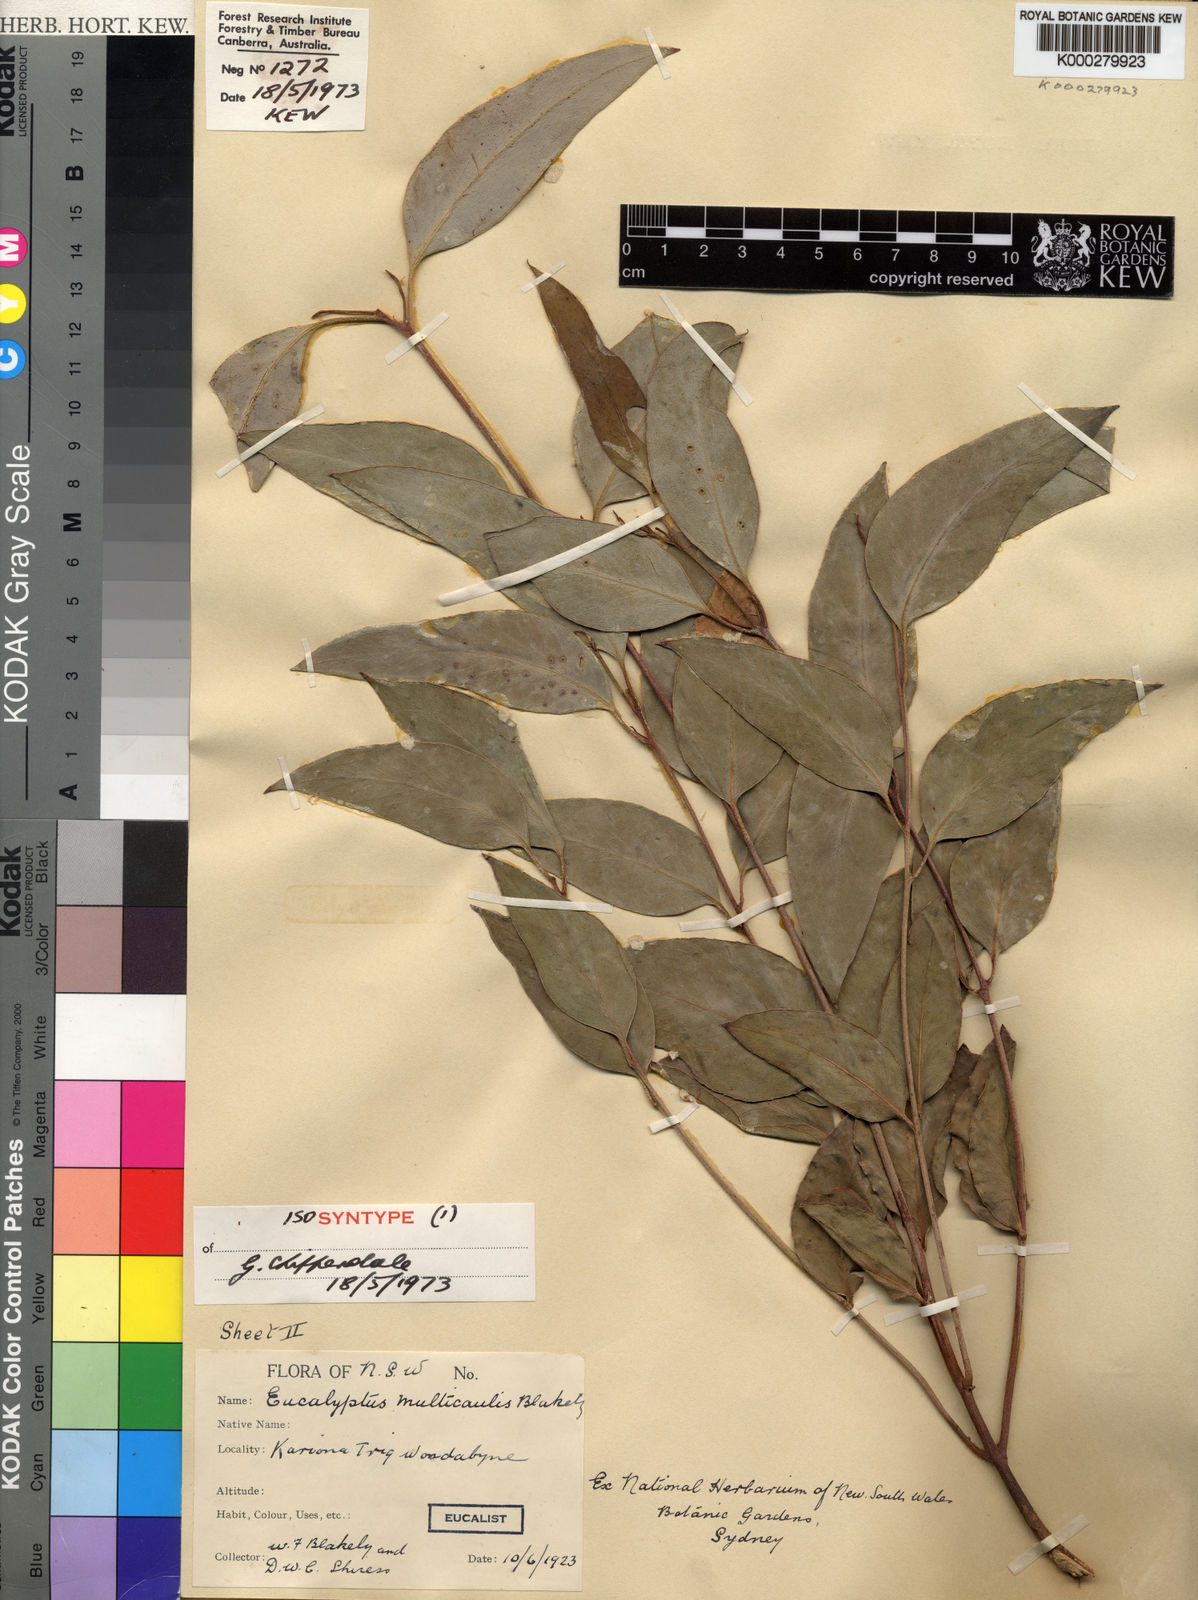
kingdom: Plantae
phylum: Tracheophyta
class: Magnoliopsida
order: Myrtales
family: Myrtaceae
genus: Eucalyptus
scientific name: Eucalyptus multicaulis
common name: Whipstick mallee-ash
